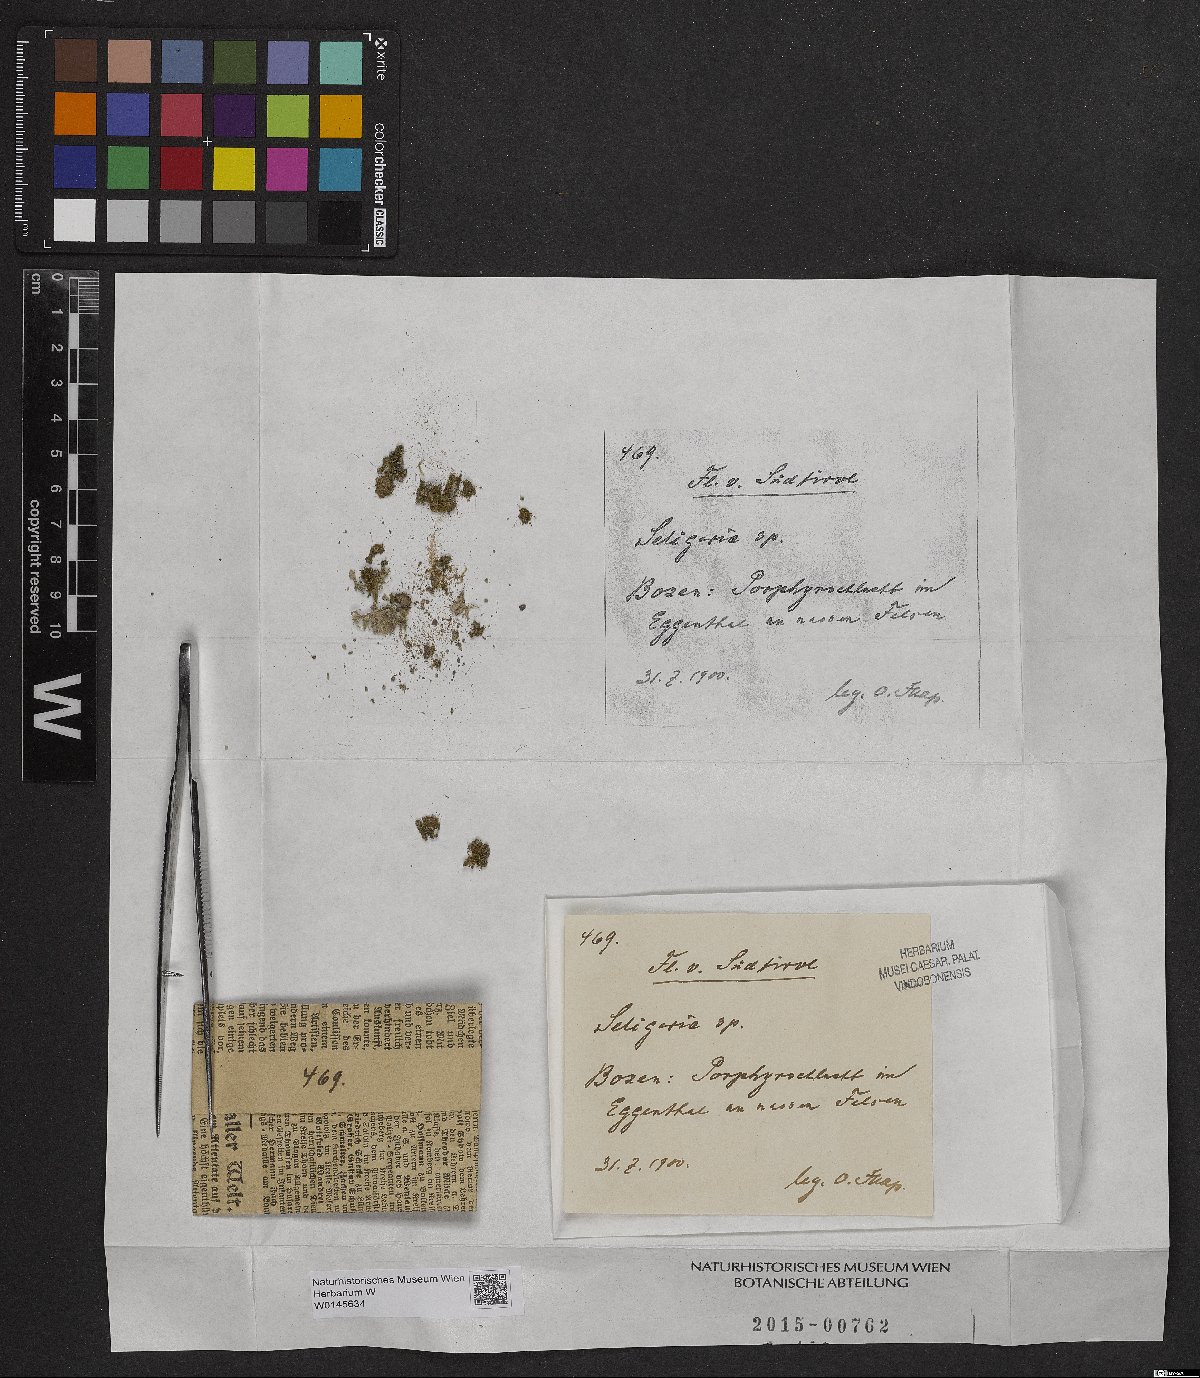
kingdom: Plantae
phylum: Bryophyta
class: Bryopsida
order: Grimmiales
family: Seligeriaceae
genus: Seligeria
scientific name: Seligeria
